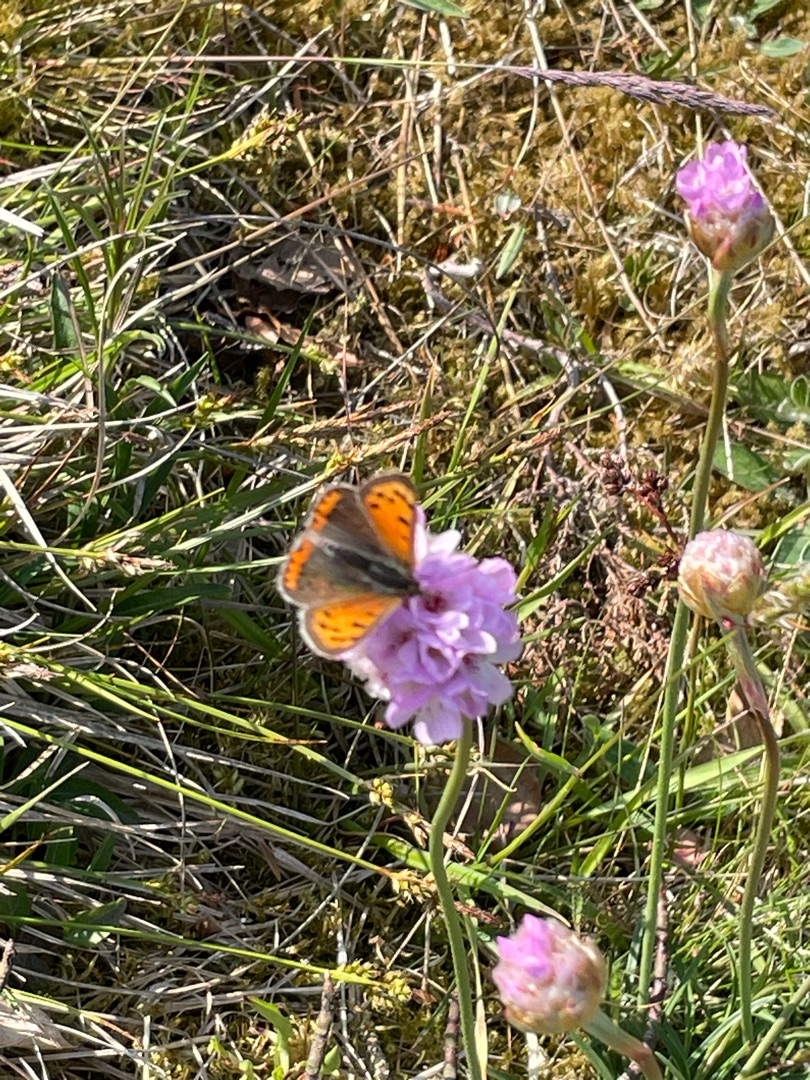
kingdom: Animalia
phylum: Arthropoda
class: Insecta
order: Lepidoptera
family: Lycaenidae
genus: Lycaena
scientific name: Lycaena phlaeas
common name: Lille ildfugl
